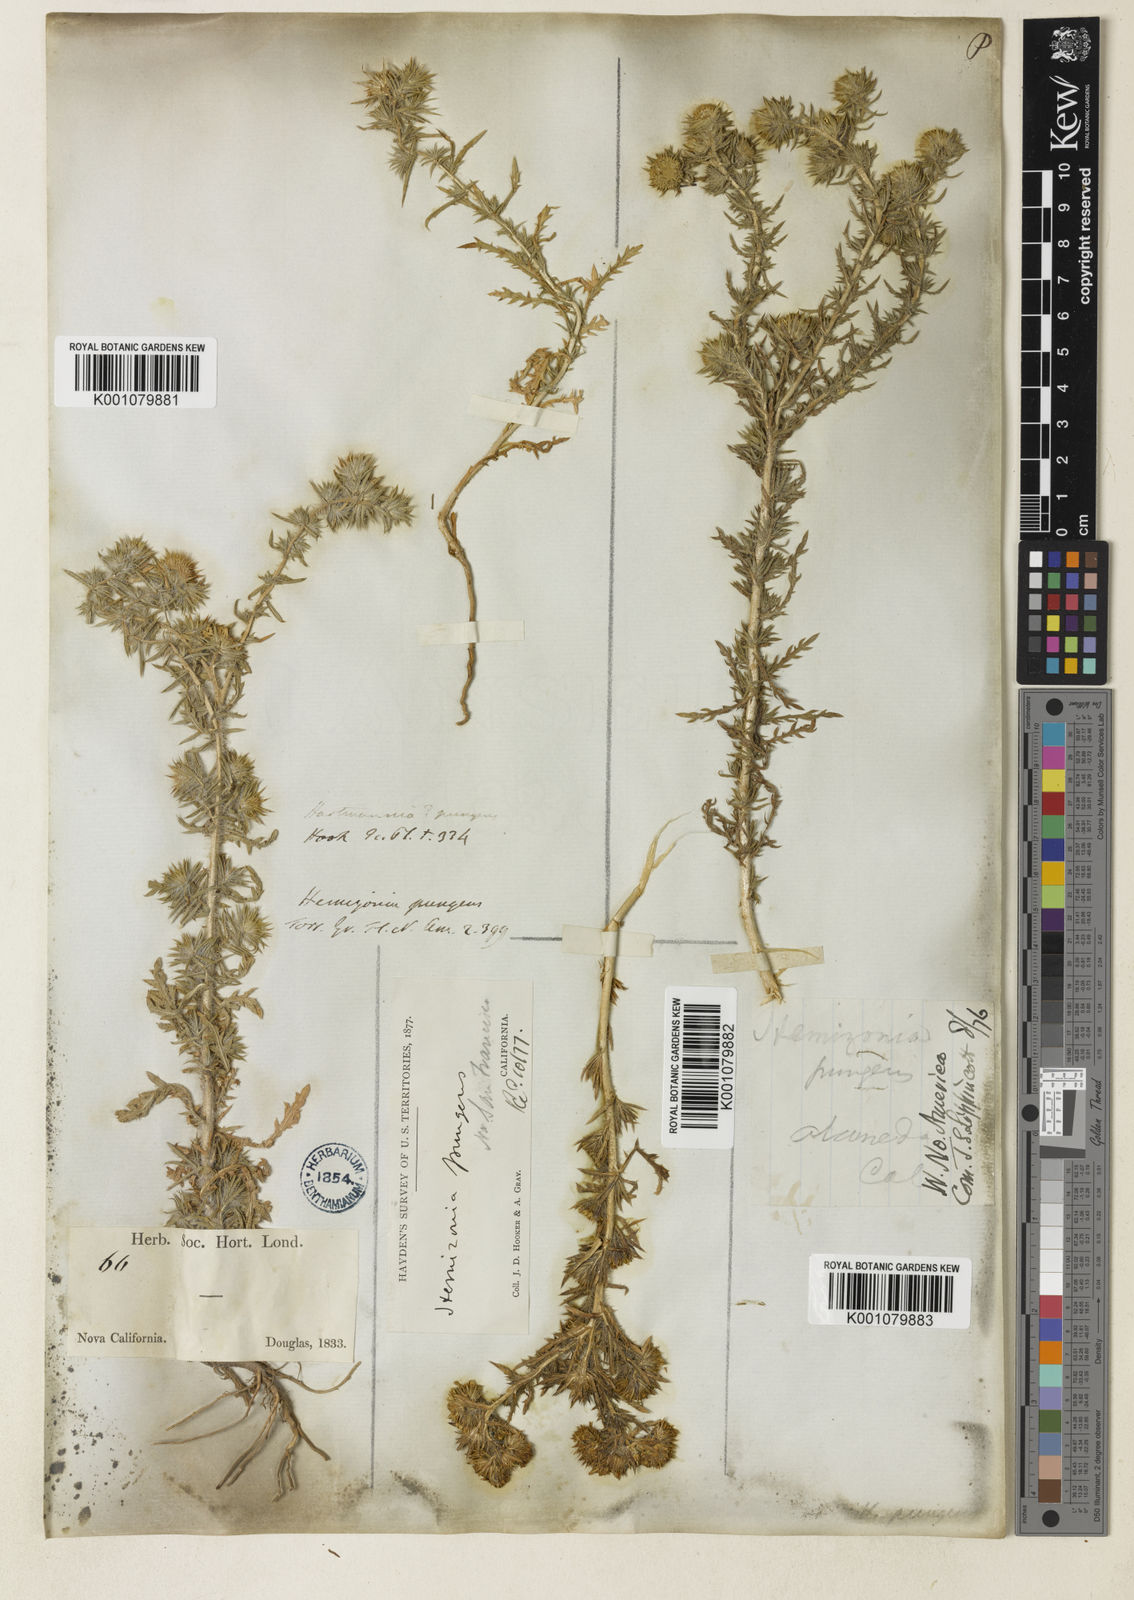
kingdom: Plantae
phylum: Tracheophyta
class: Magnoliopsida
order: Asterales
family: Asteraceae
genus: Centromadia
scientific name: Centromadia pungens
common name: Common spikeweed
